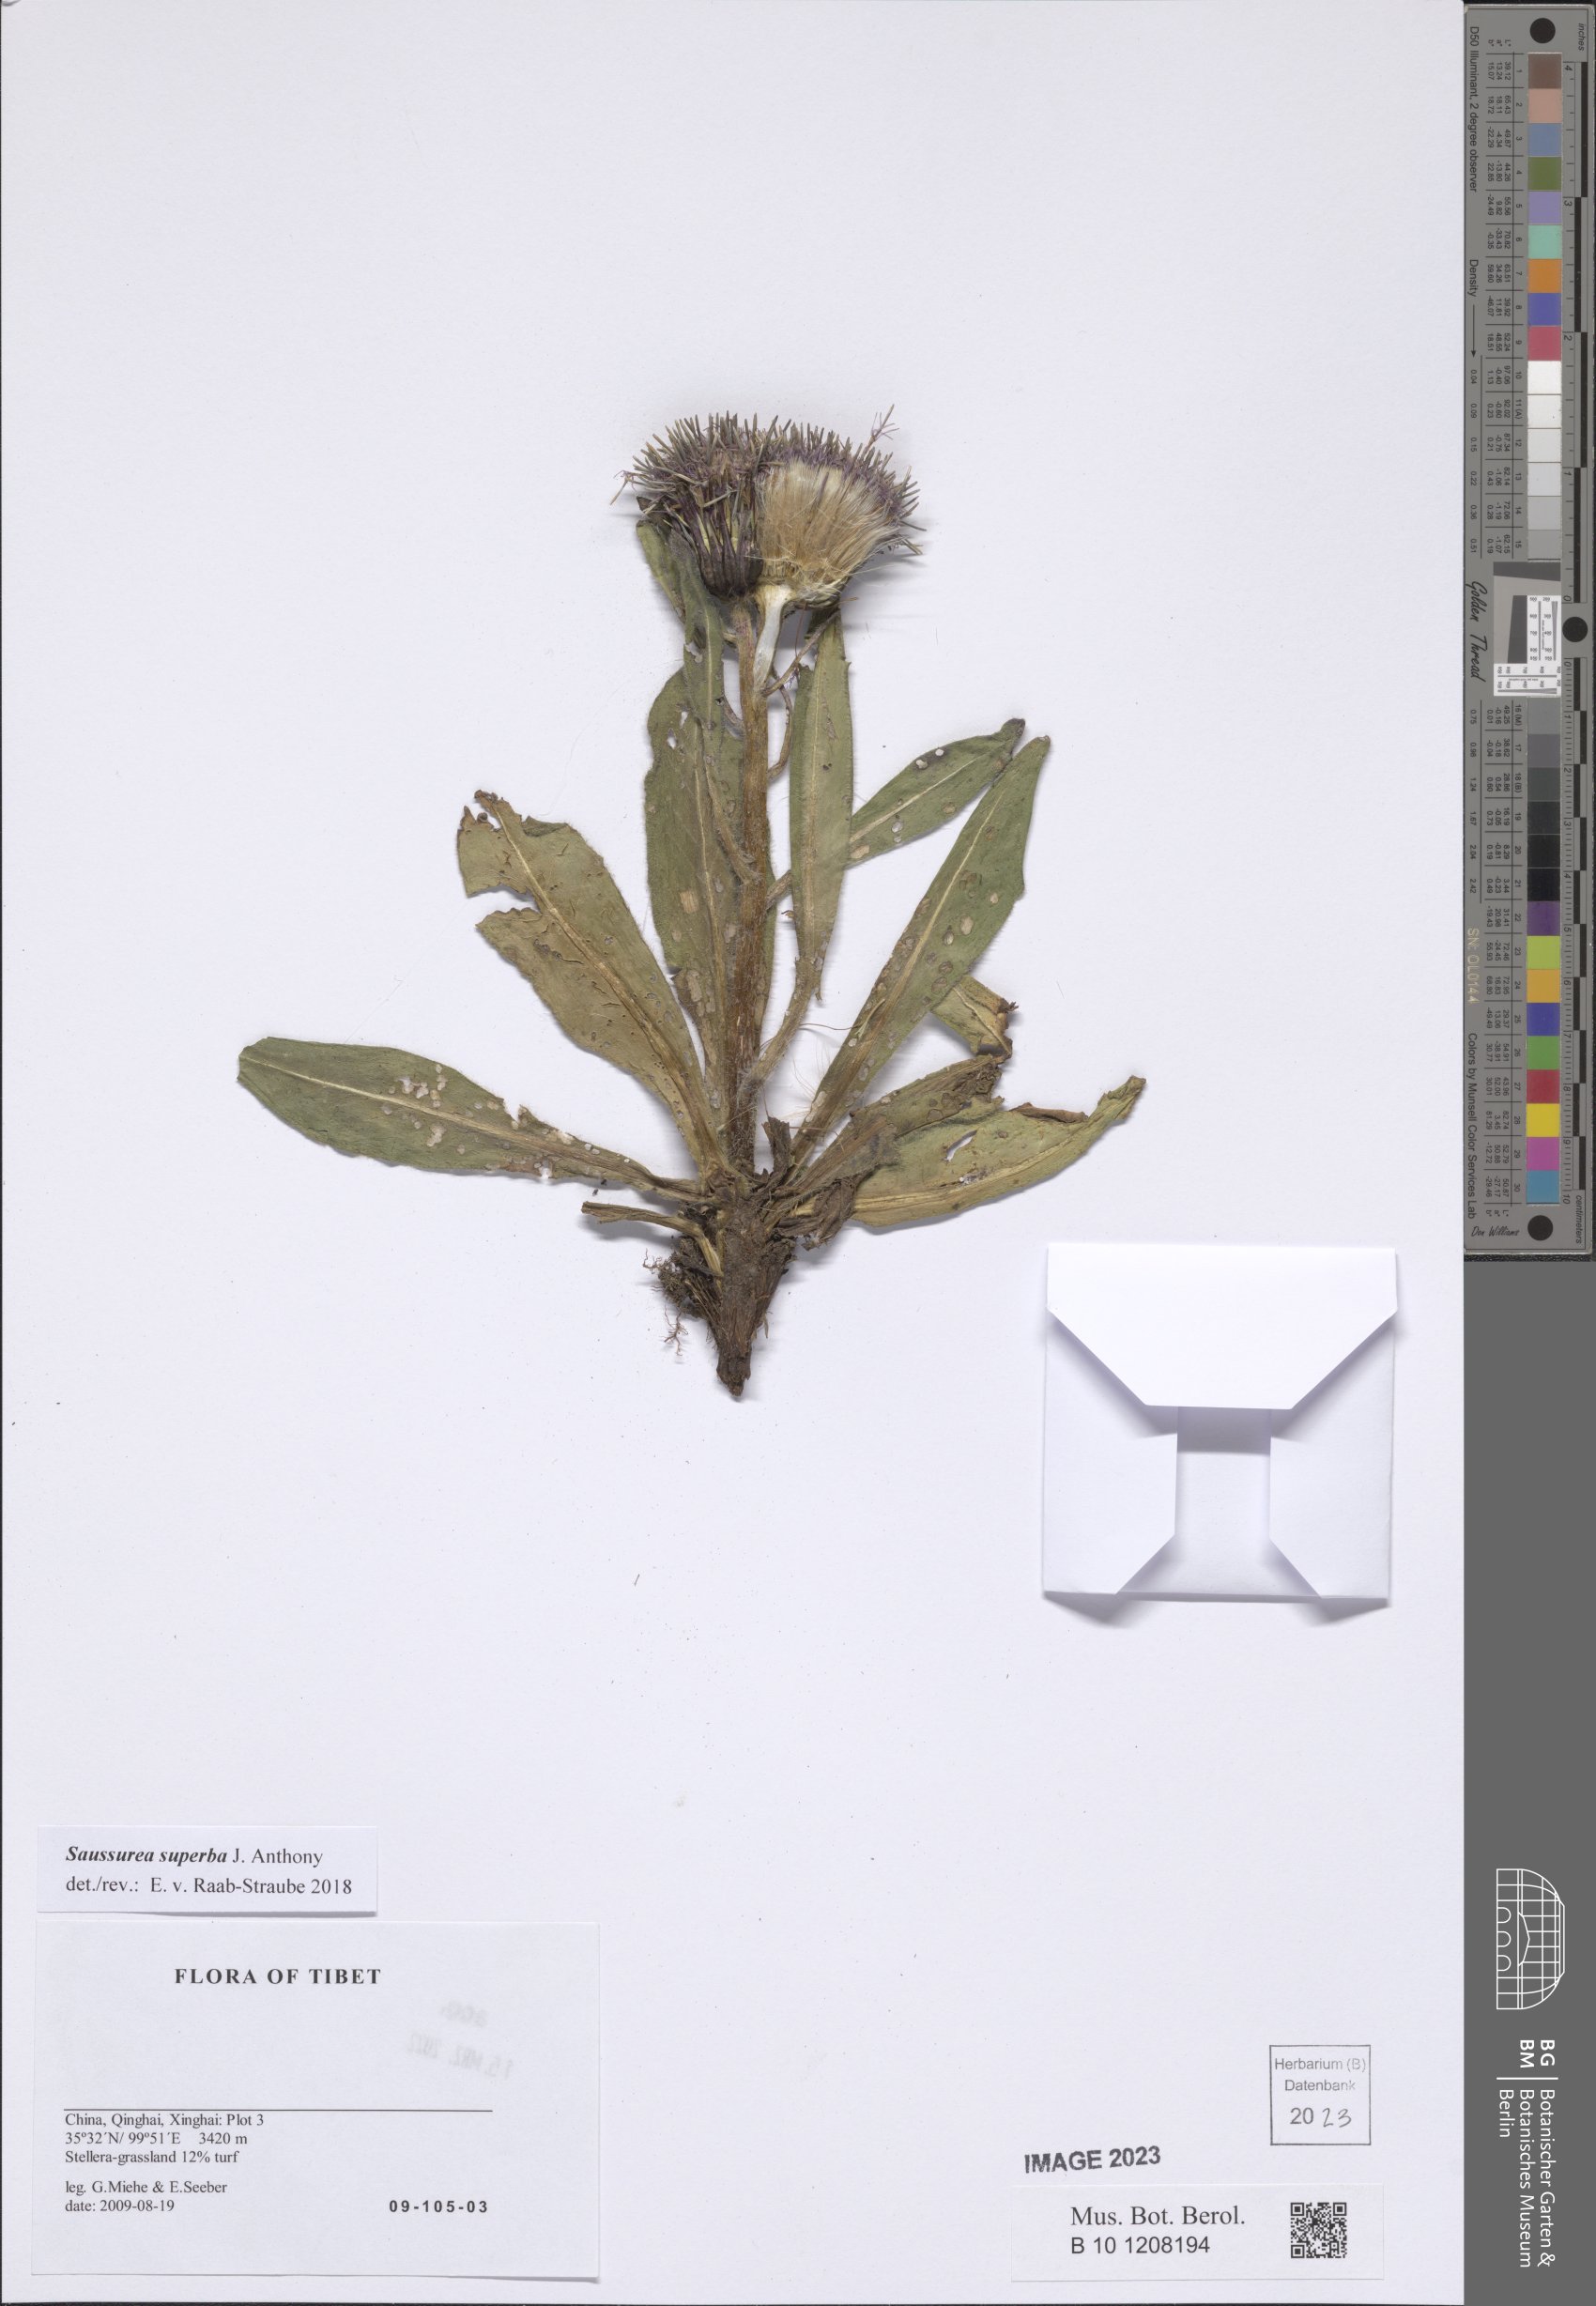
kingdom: Plantae
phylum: Tracheophyta
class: Magnoliopsida
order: Asterales
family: Asteraceae
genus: Saussurea
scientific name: Saussurea superba
